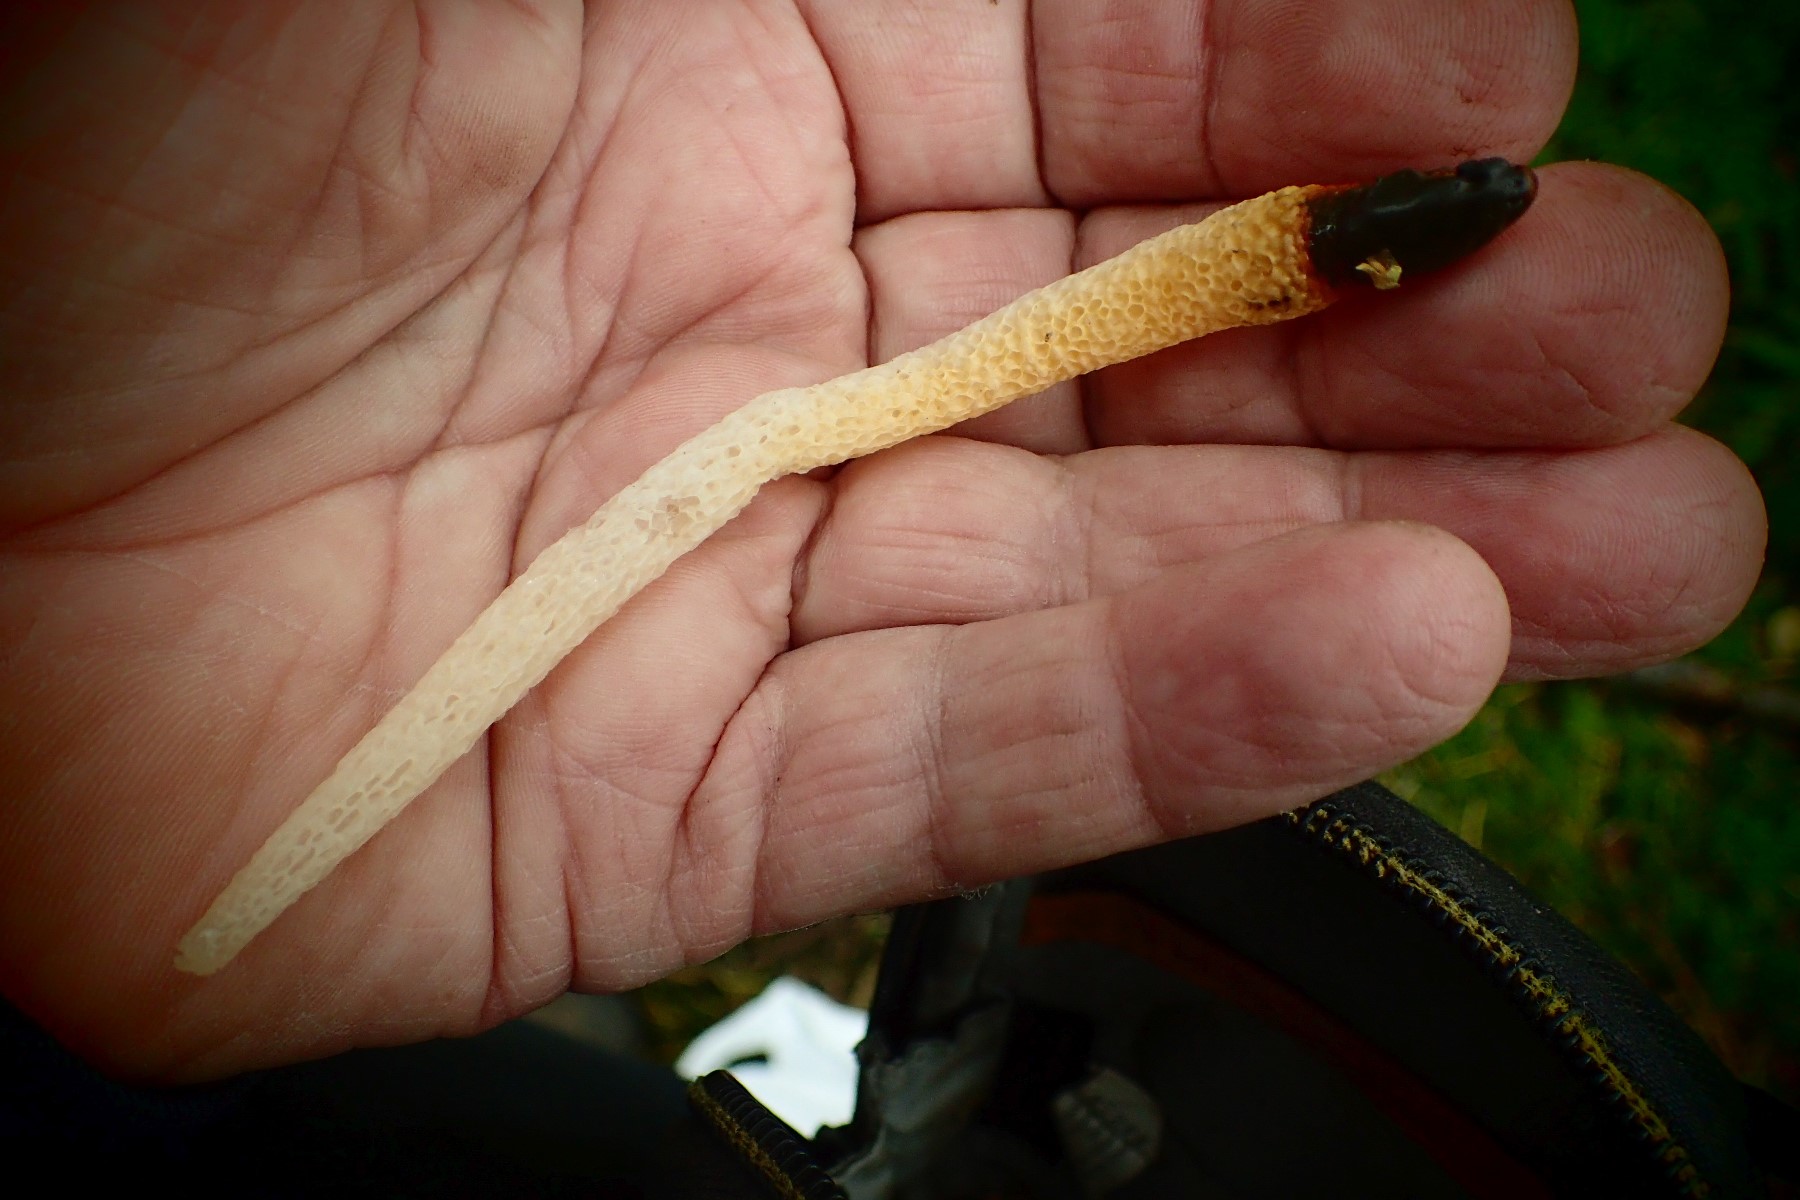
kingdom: Fungi
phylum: Basidiomycota
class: Agaricomycetes
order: Phallales
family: Phallaceae
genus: Mutinus
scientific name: Mutinus caninus
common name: hunde-stinksvamp
